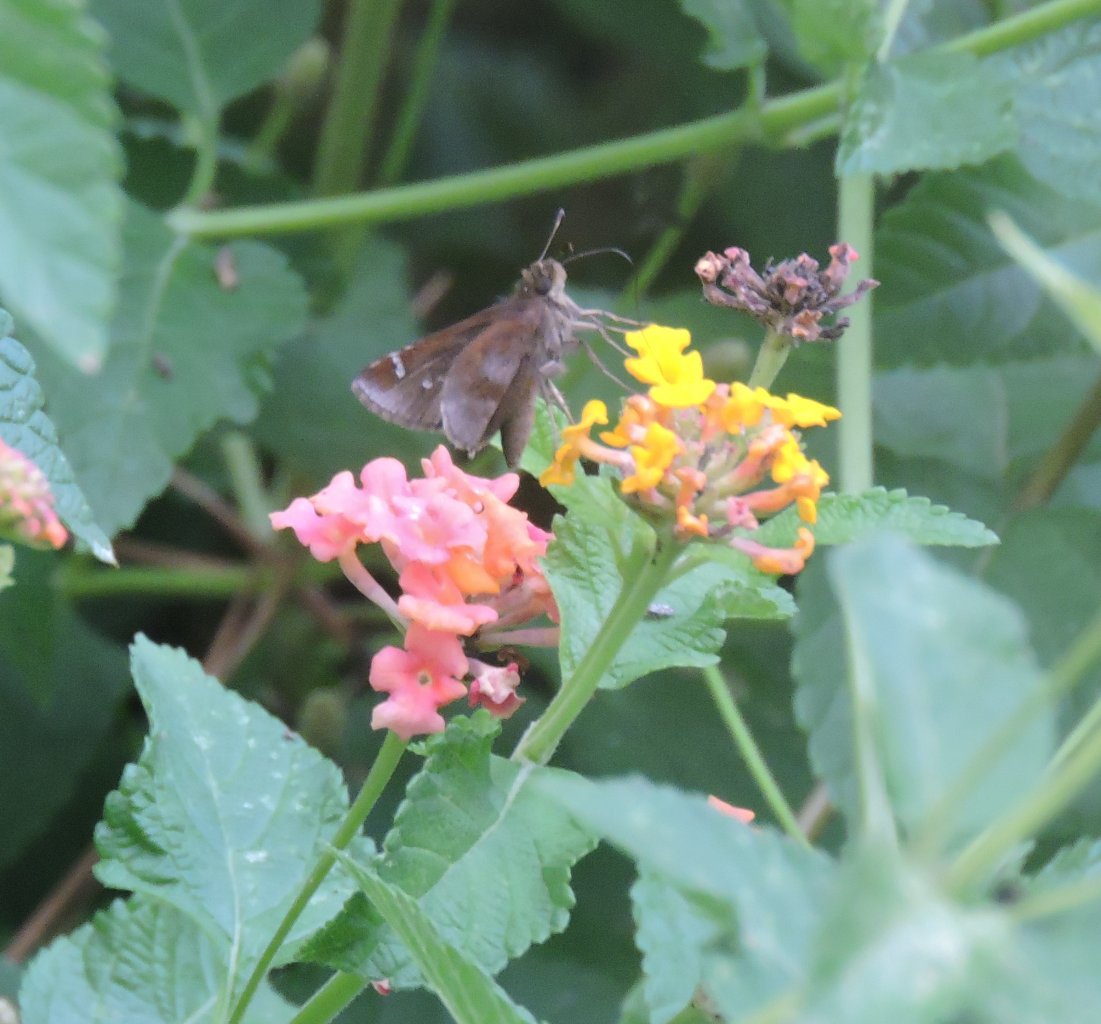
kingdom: Animalia
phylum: Arthropoda
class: Insecta
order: Lepidoptera
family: Hesperiidae
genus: Lerema
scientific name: Lerema accius
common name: Clouded Skipper
